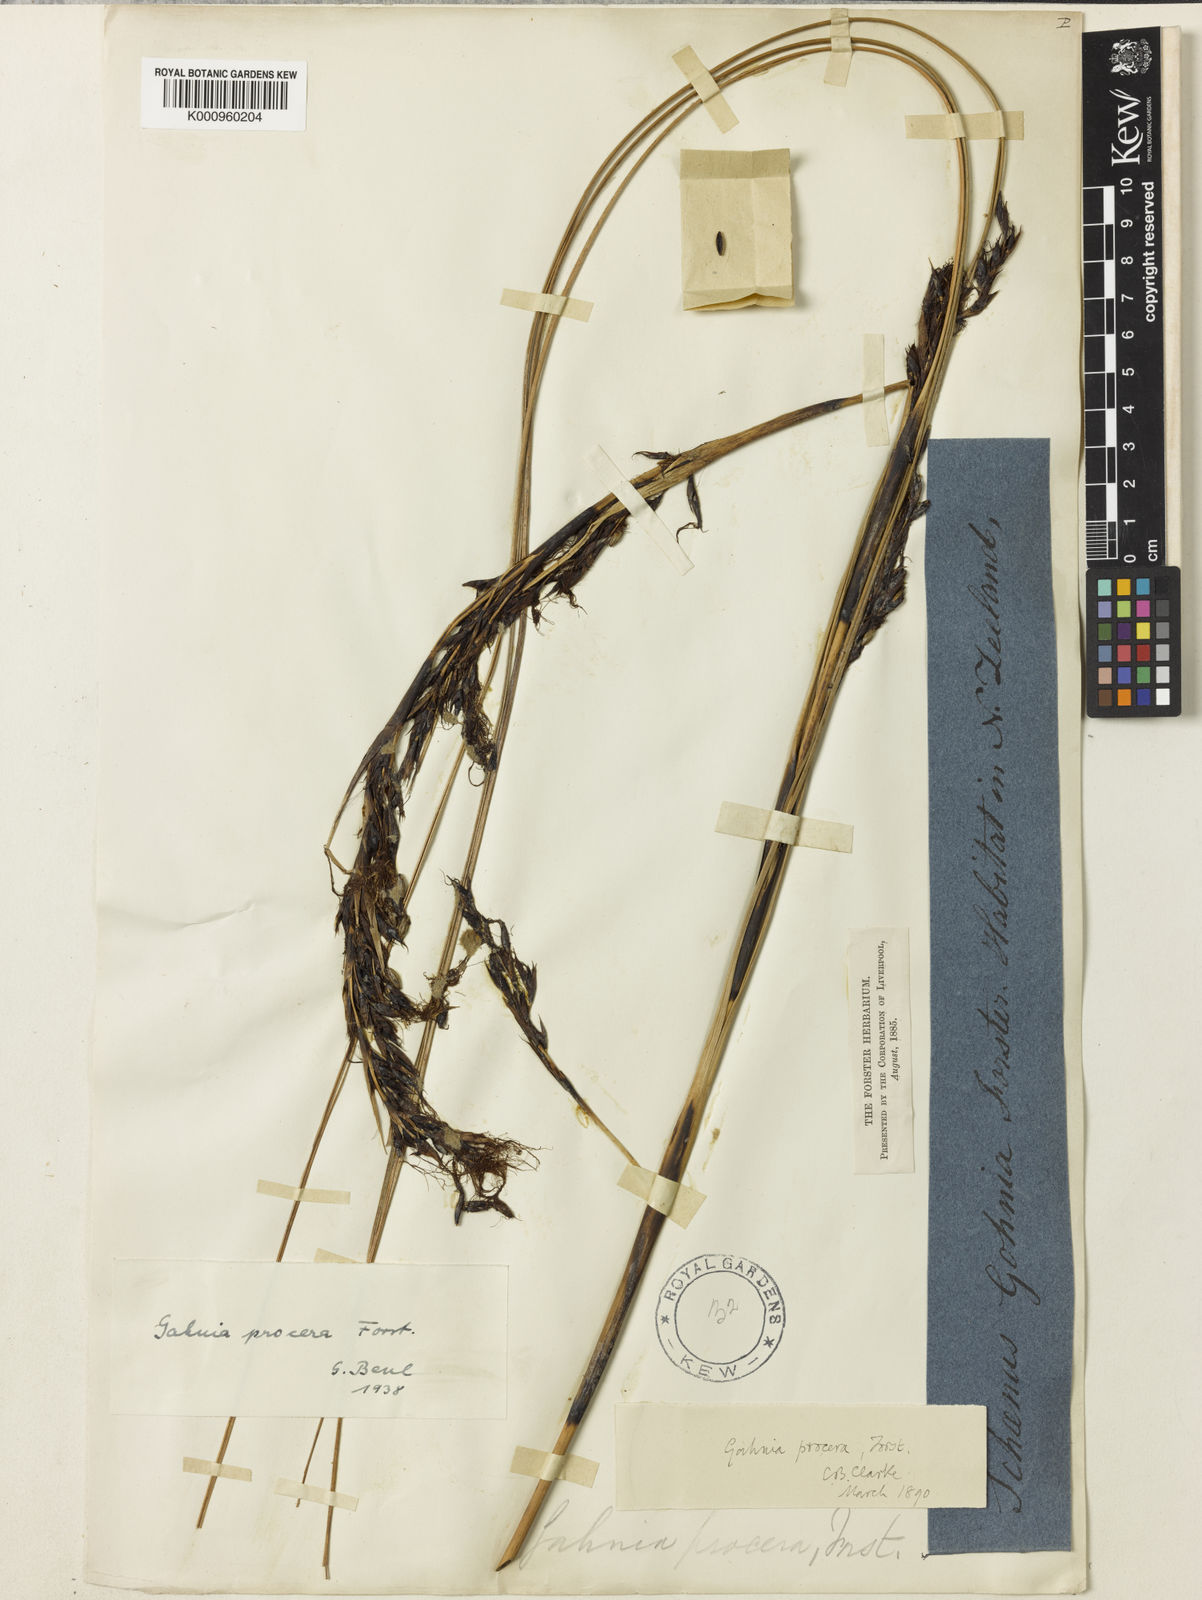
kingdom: Plantae
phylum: Tracheophyta
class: Liliopsida
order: Poales
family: Cyperaceae
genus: Gahnia
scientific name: Gahnia procera
